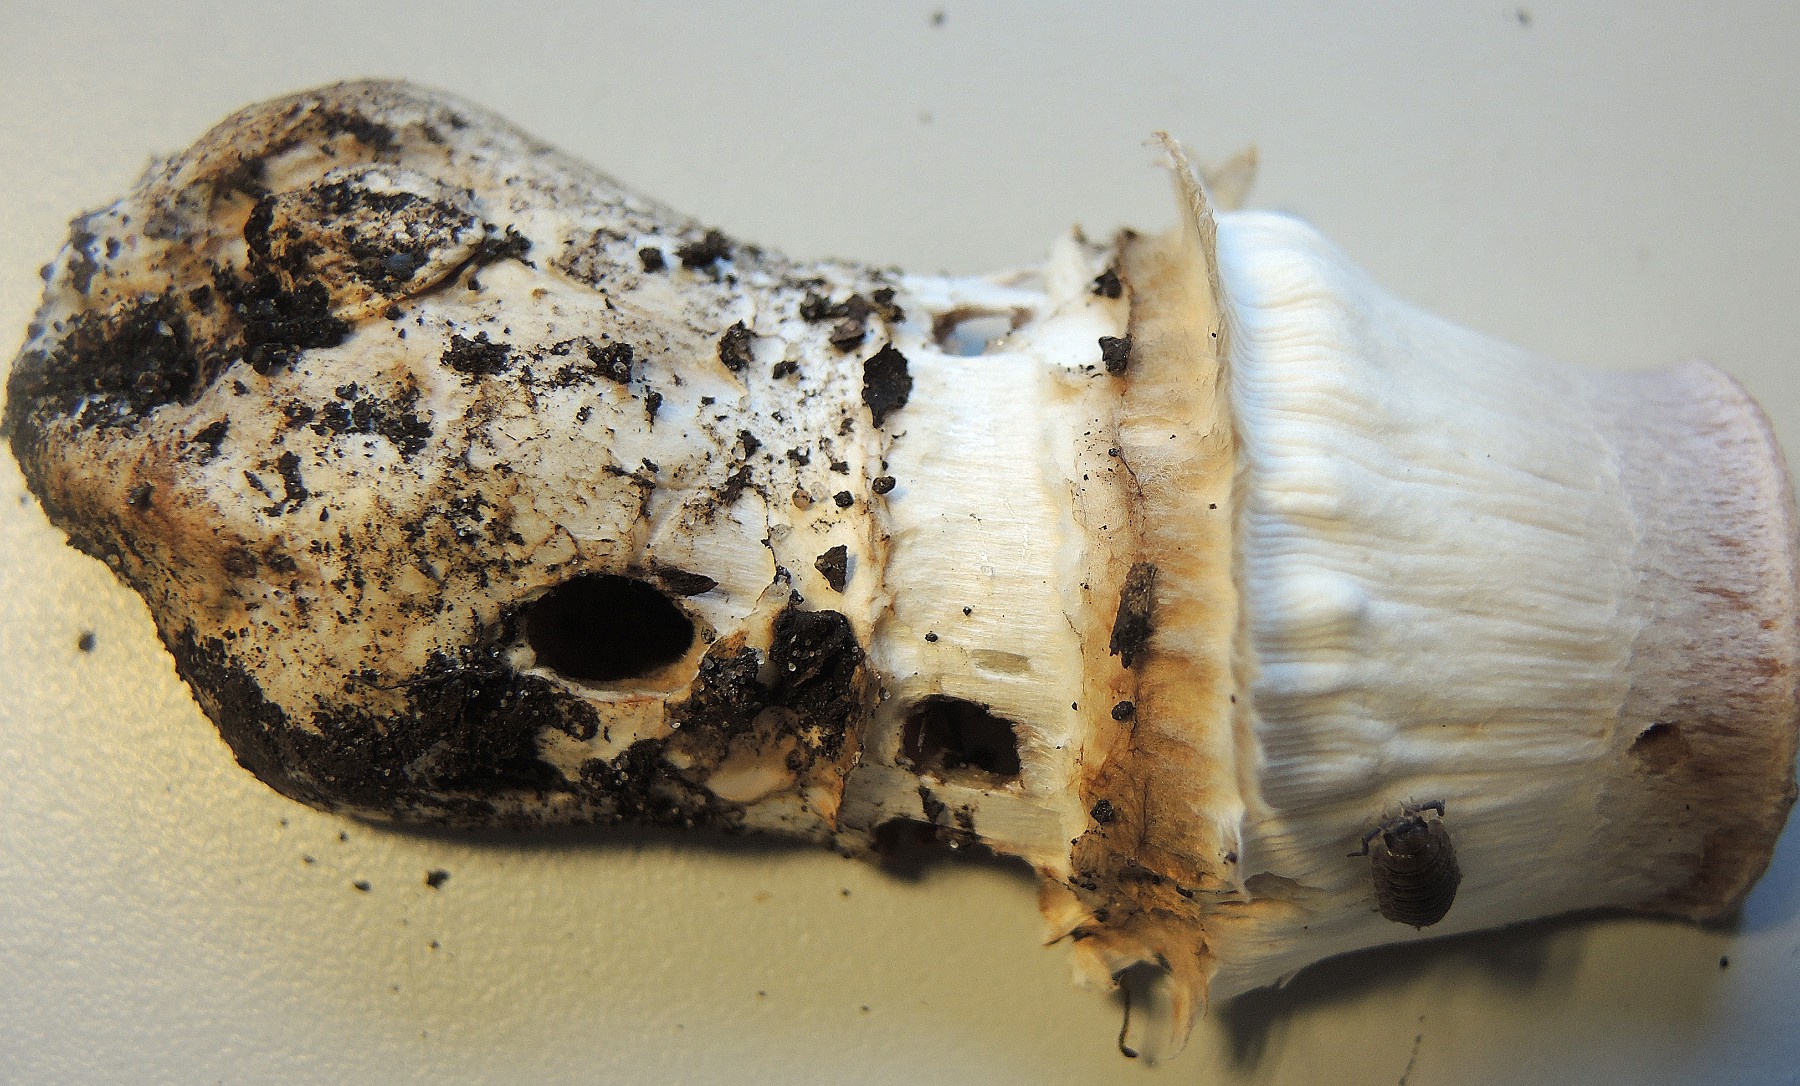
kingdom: Fungi
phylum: Basidiomycota
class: Agaricomycetes
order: Agaricales
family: Agaricaceae
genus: Agaricus
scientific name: Agaricus subperonatus
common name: knippe-champignon
